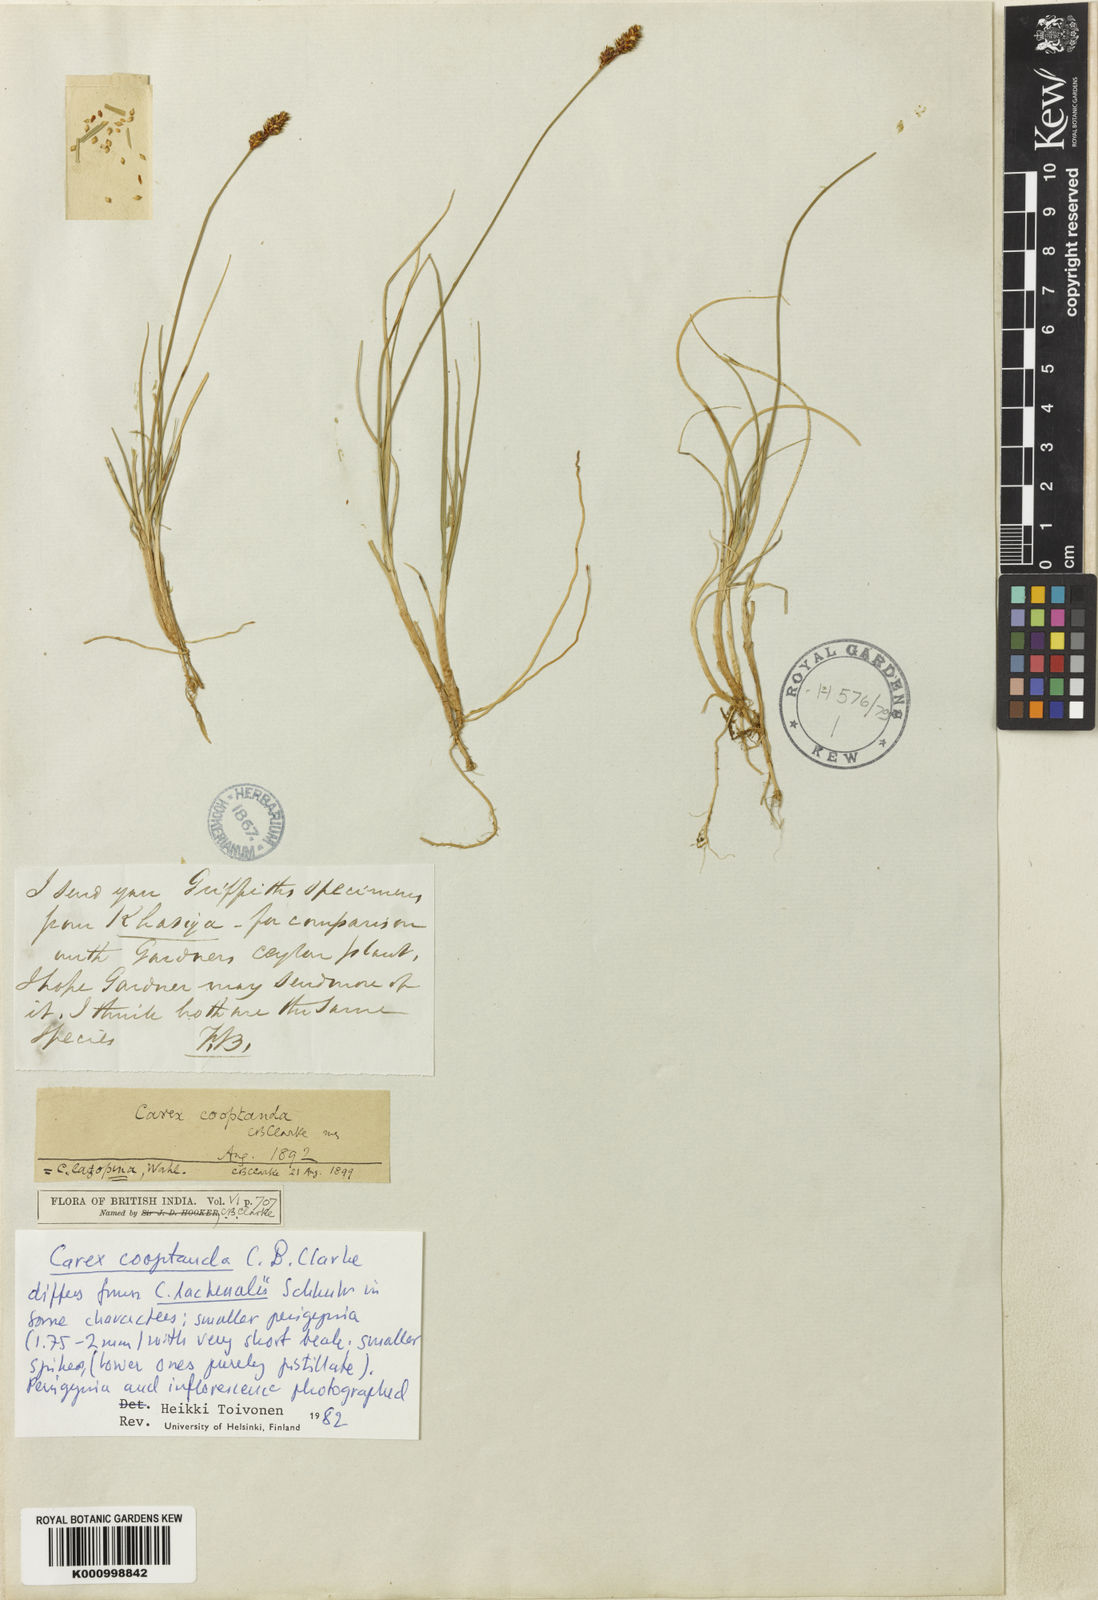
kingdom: Plantae
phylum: Tracheophyta
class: Liliopsida
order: Poales
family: Cyperaceae
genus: Carex
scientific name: Carex lachenalii
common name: Hare's-foot sedge
